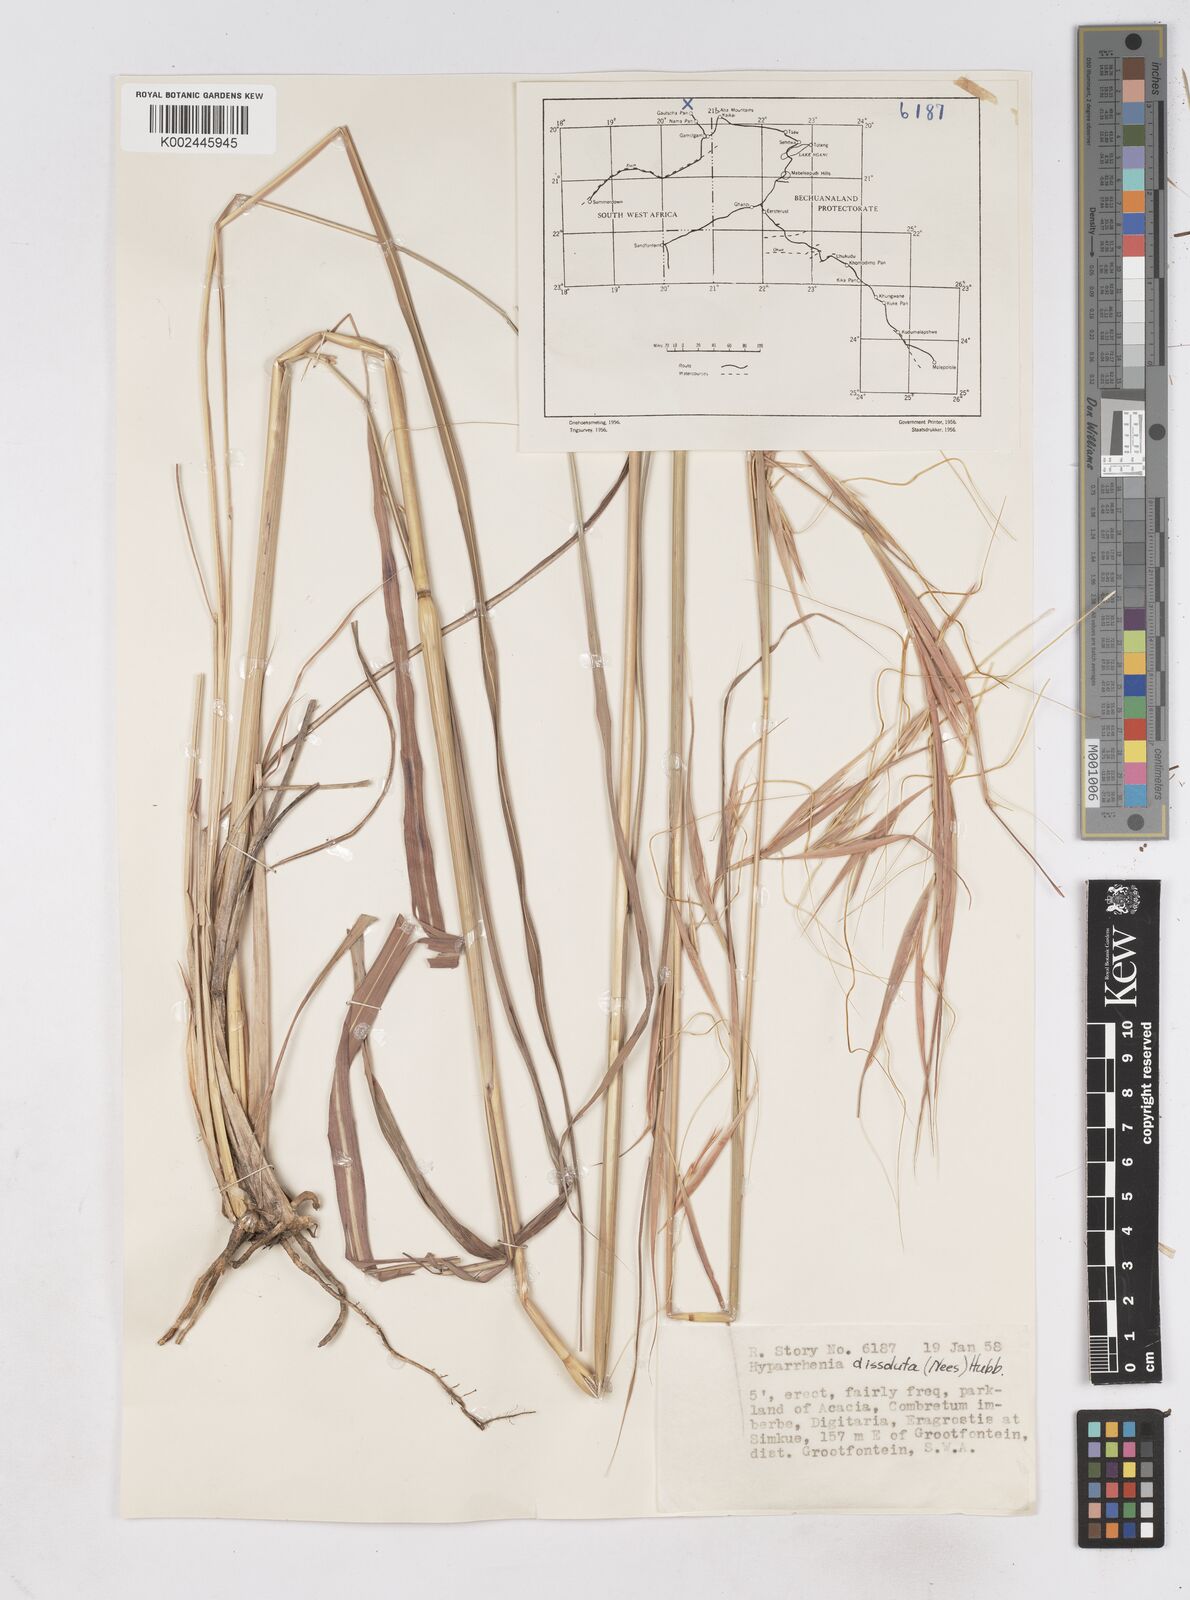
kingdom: Plantae
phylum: Tracheophyta
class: Liliopsida
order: Poales
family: Poaceae
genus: Hyperthelia
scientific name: Hyperthelia dissoluta
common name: Yellow thatching grass
